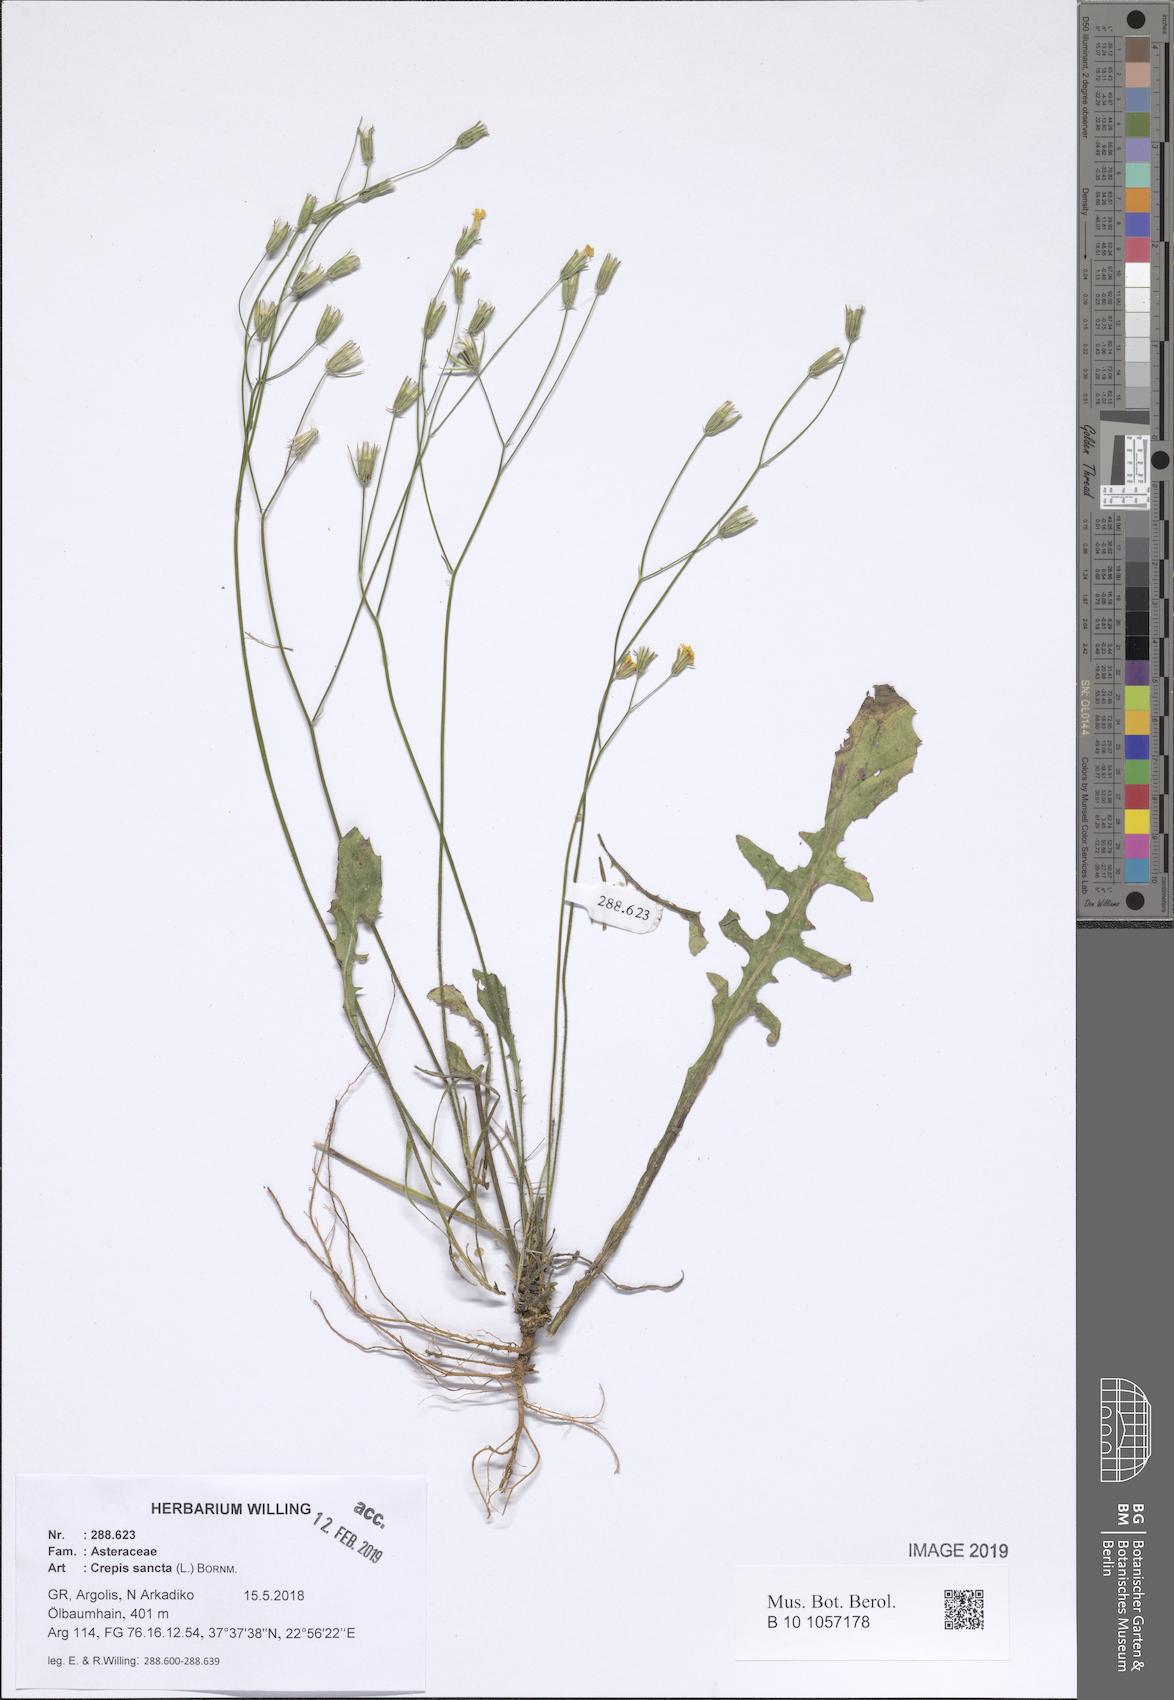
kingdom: Plantae
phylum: Tracheophyta
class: Liliopsida
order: Asparagales
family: Asphodelaceae
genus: Asphodelus
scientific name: Asphodelus fistulosus
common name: Onionweed
